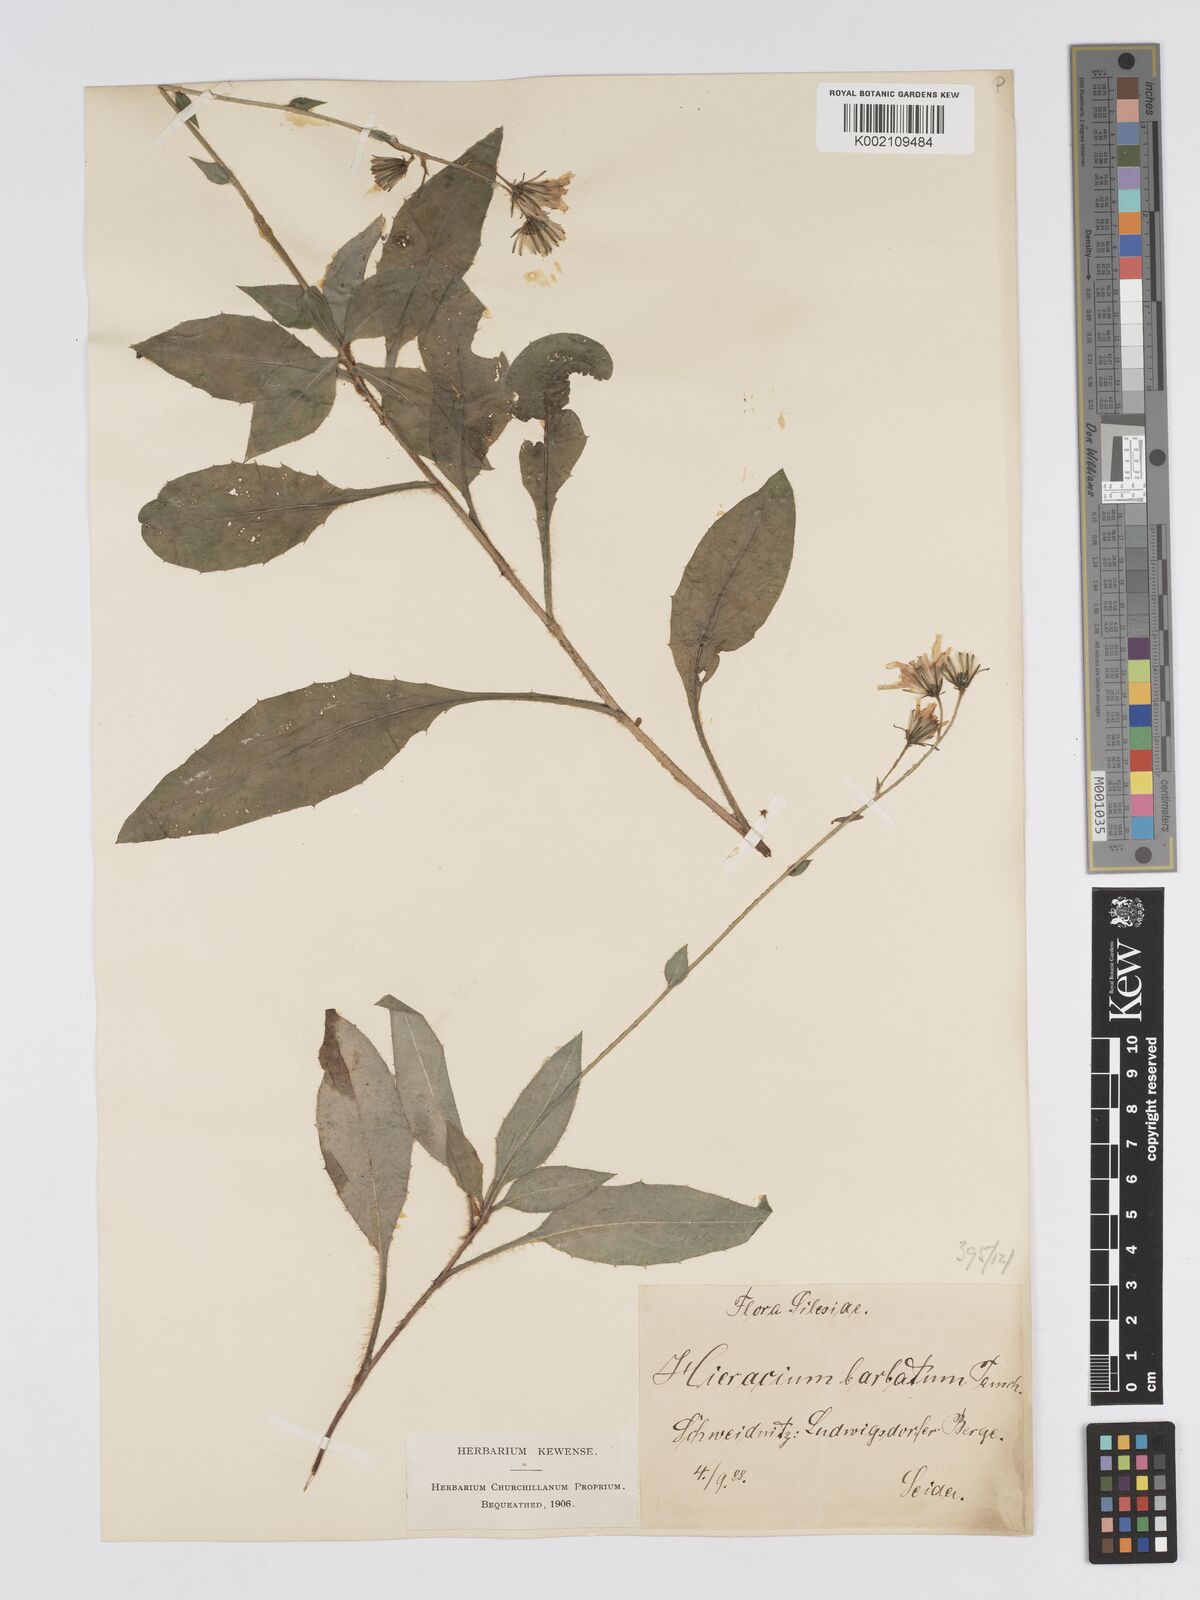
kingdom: Plantae
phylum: Tracheophyta
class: Magnoliopsida
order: Asterales
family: Asteraceae
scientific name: Asteraceae
